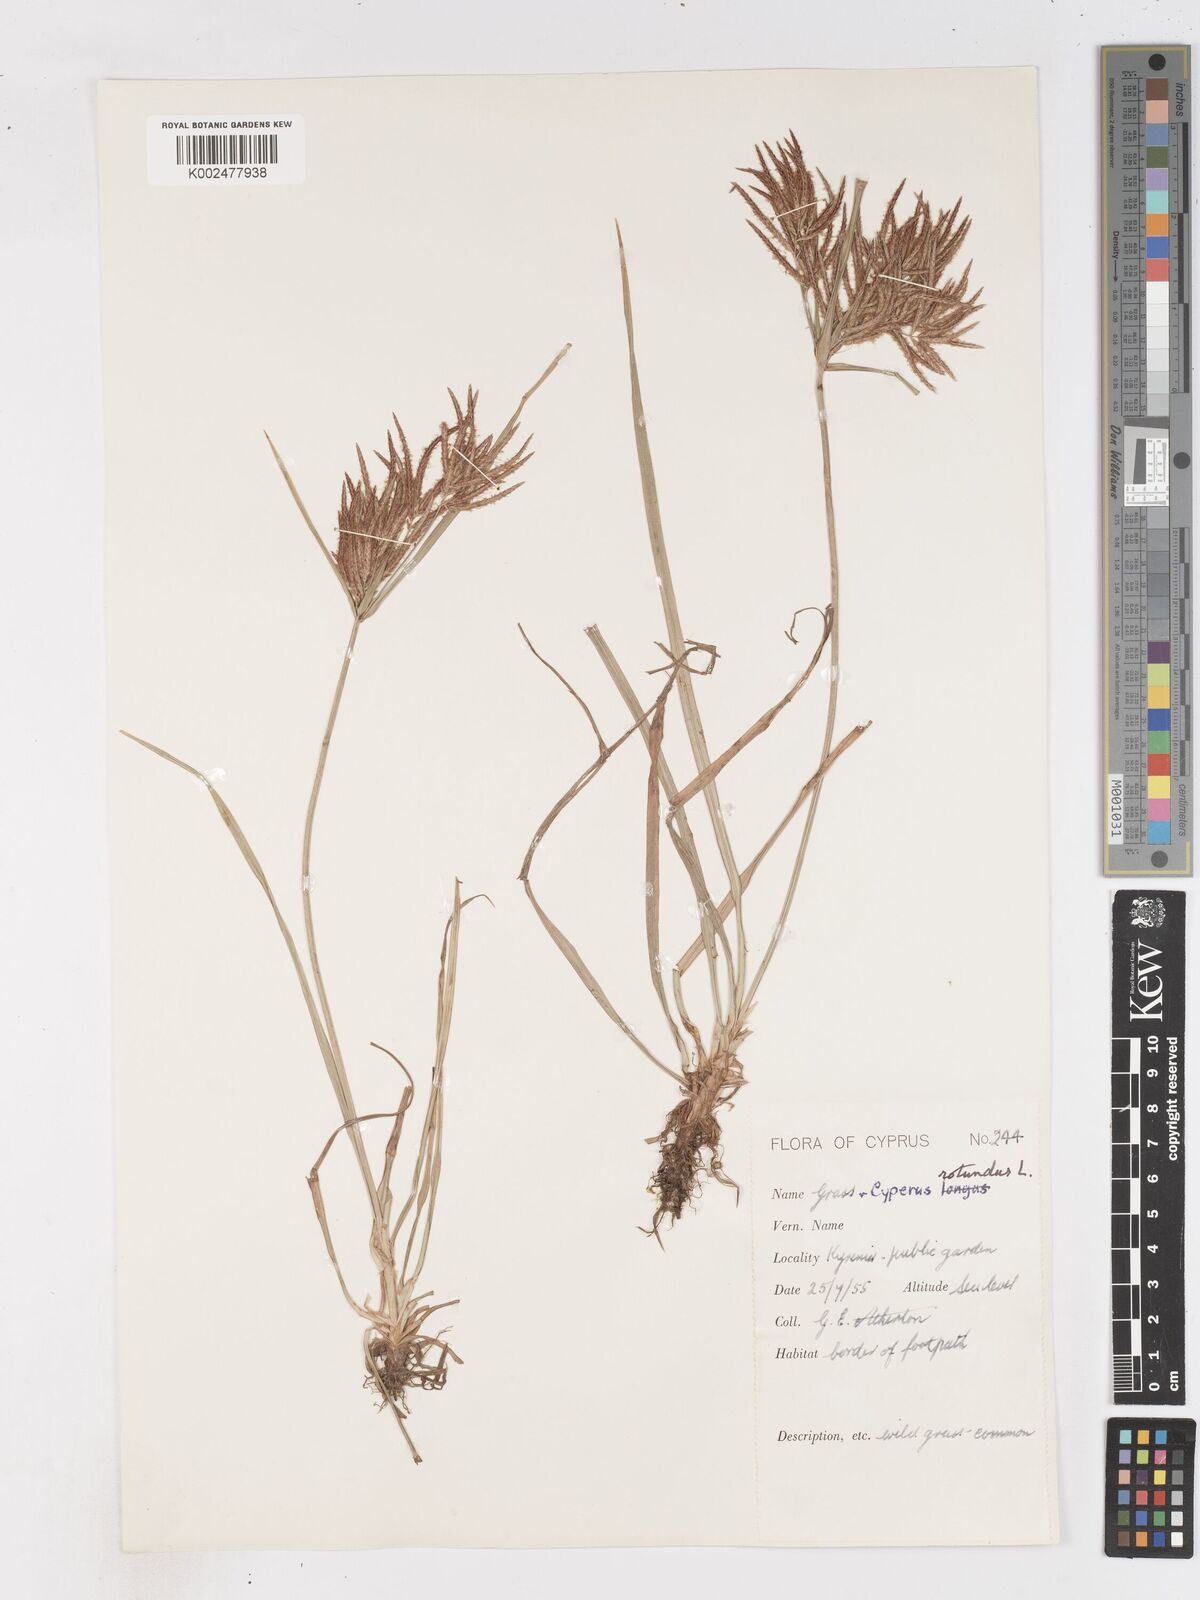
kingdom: Plantae
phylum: Tracheophyta
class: Liliopsida
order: Poales
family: Cyperaceae
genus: Cyperus
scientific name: Cyperus rotundus
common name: Nutgrass
